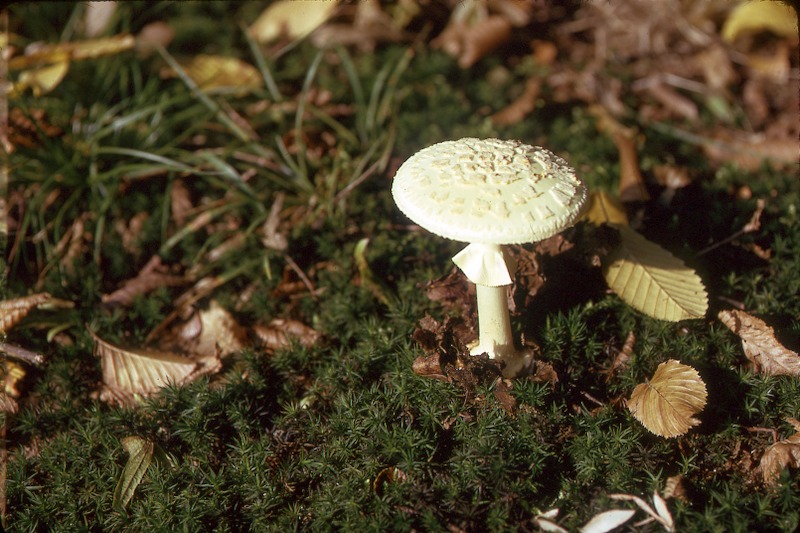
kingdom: Fungi
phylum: Basidiomycota
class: Agaricomycetes
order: Agaricales
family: Amanitaceae
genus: Amanita
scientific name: Amanita citrina
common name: False death-cap
